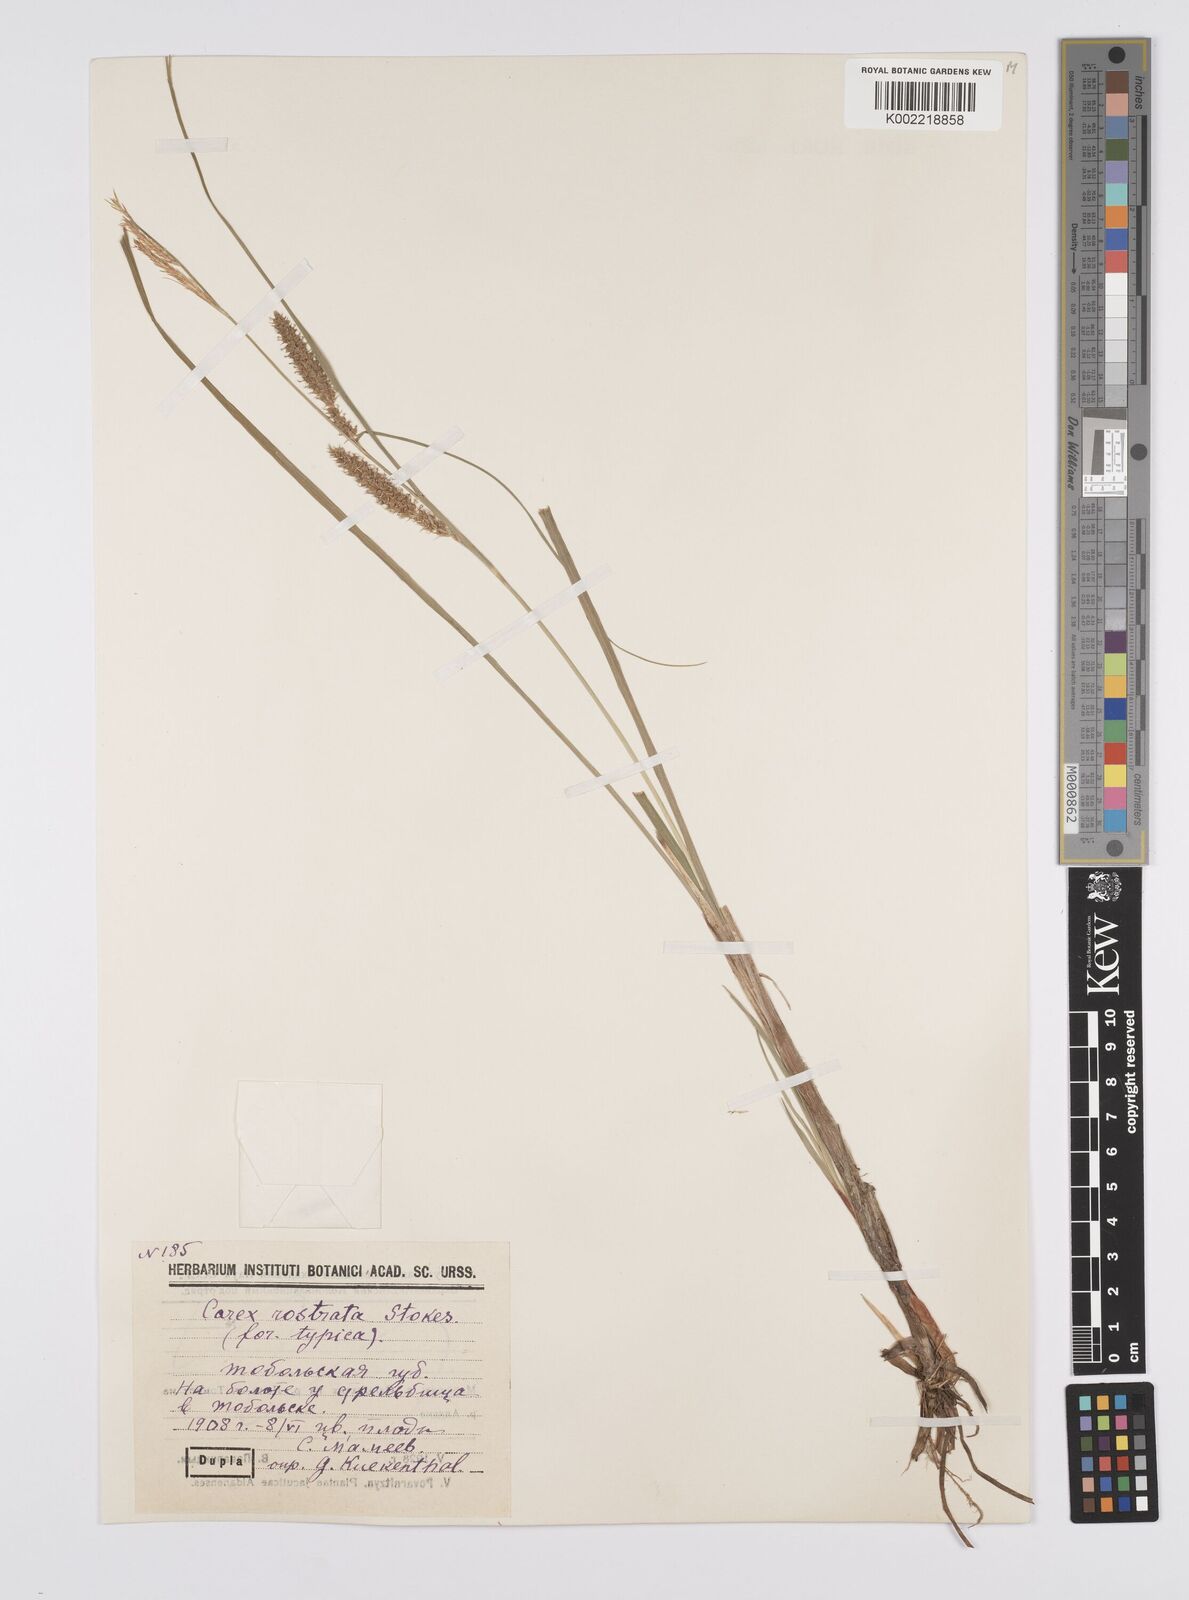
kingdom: Plantae
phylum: Tracheophyta
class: Liliopsida
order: Poales
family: Cyperaceae
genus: Carex
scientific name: Carex michauxiana
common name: Michaux's sedge
